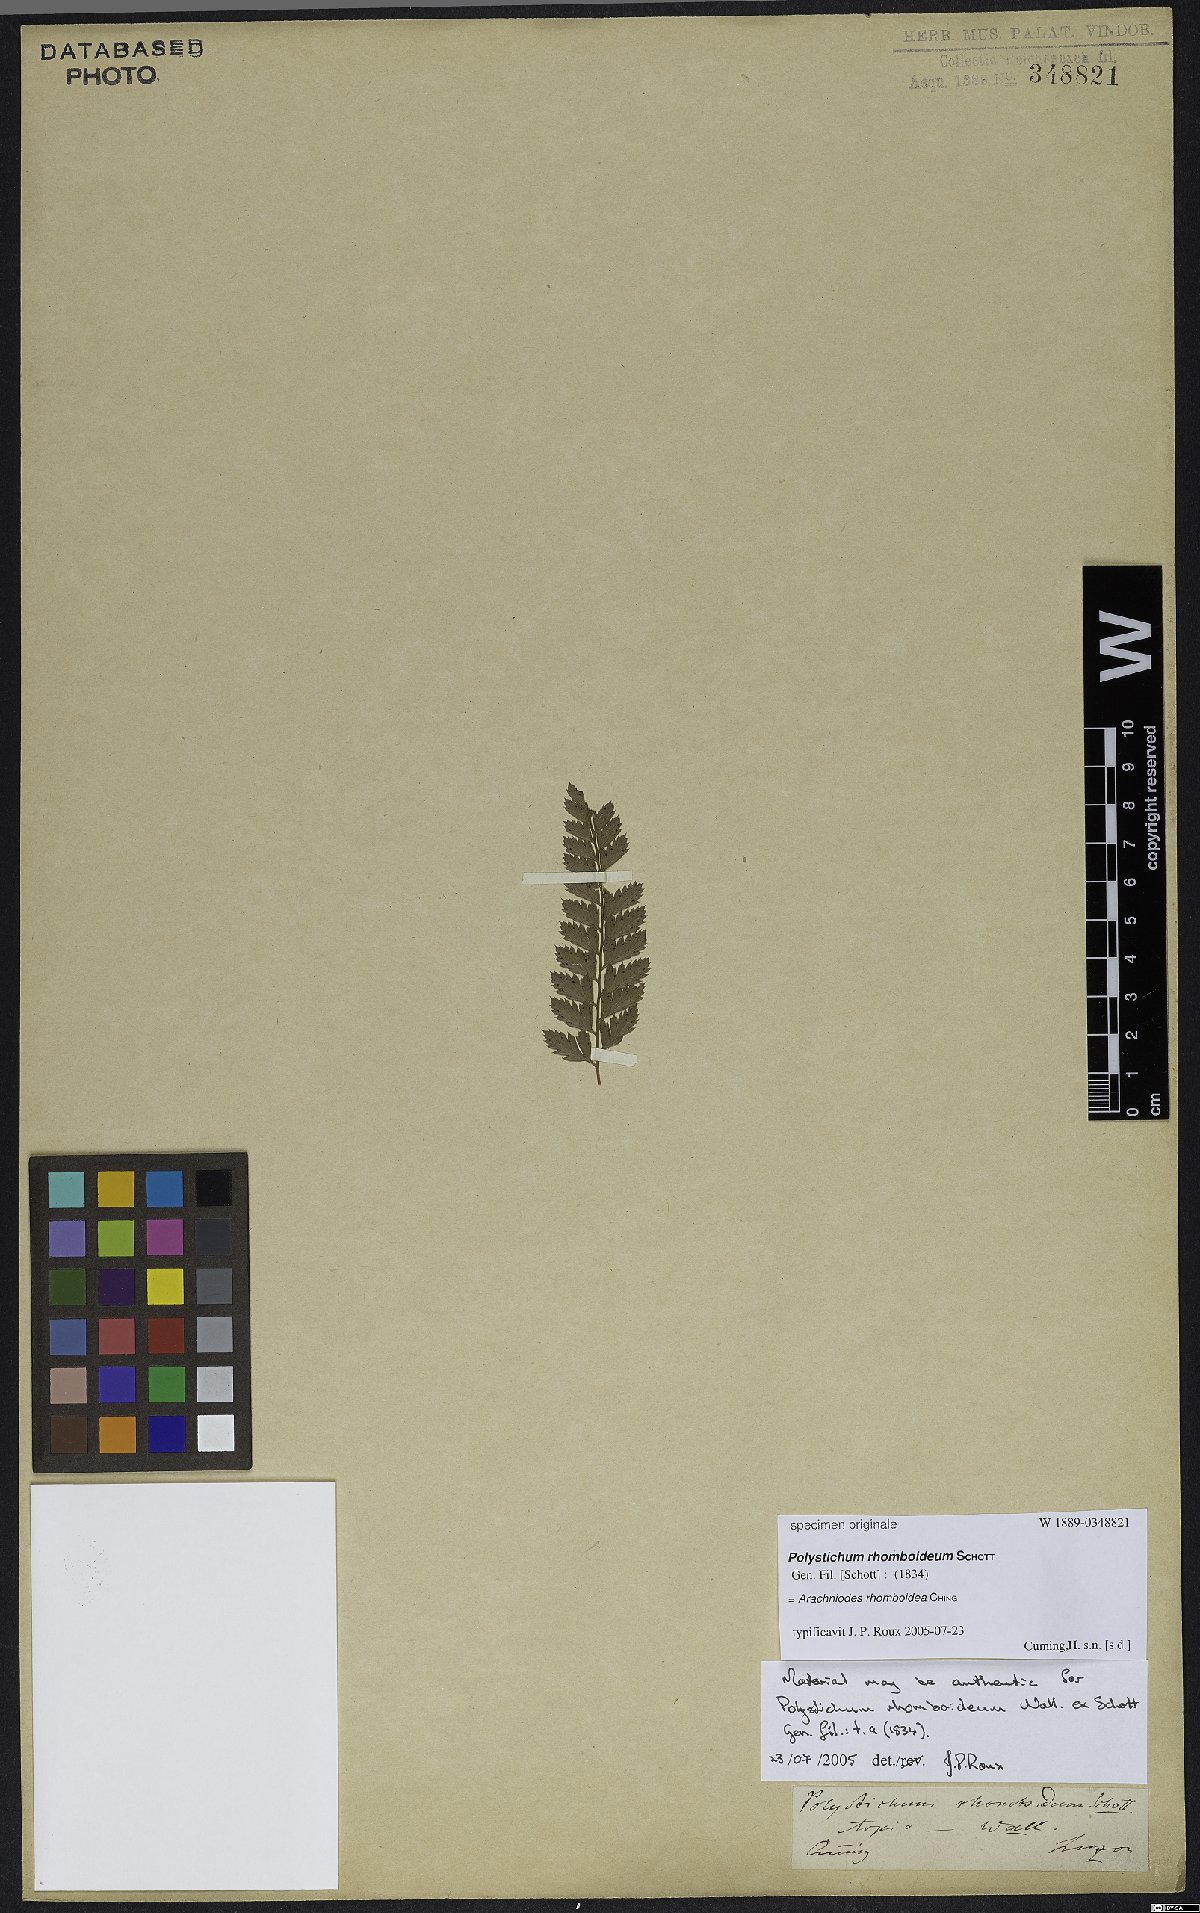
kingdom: Plantae
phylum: Tracheophyta
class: Polypodiopsida
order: Polypodiales
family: Dryopteridaceae
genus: Arachniodes
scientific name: Arachniodes rhomboidea
